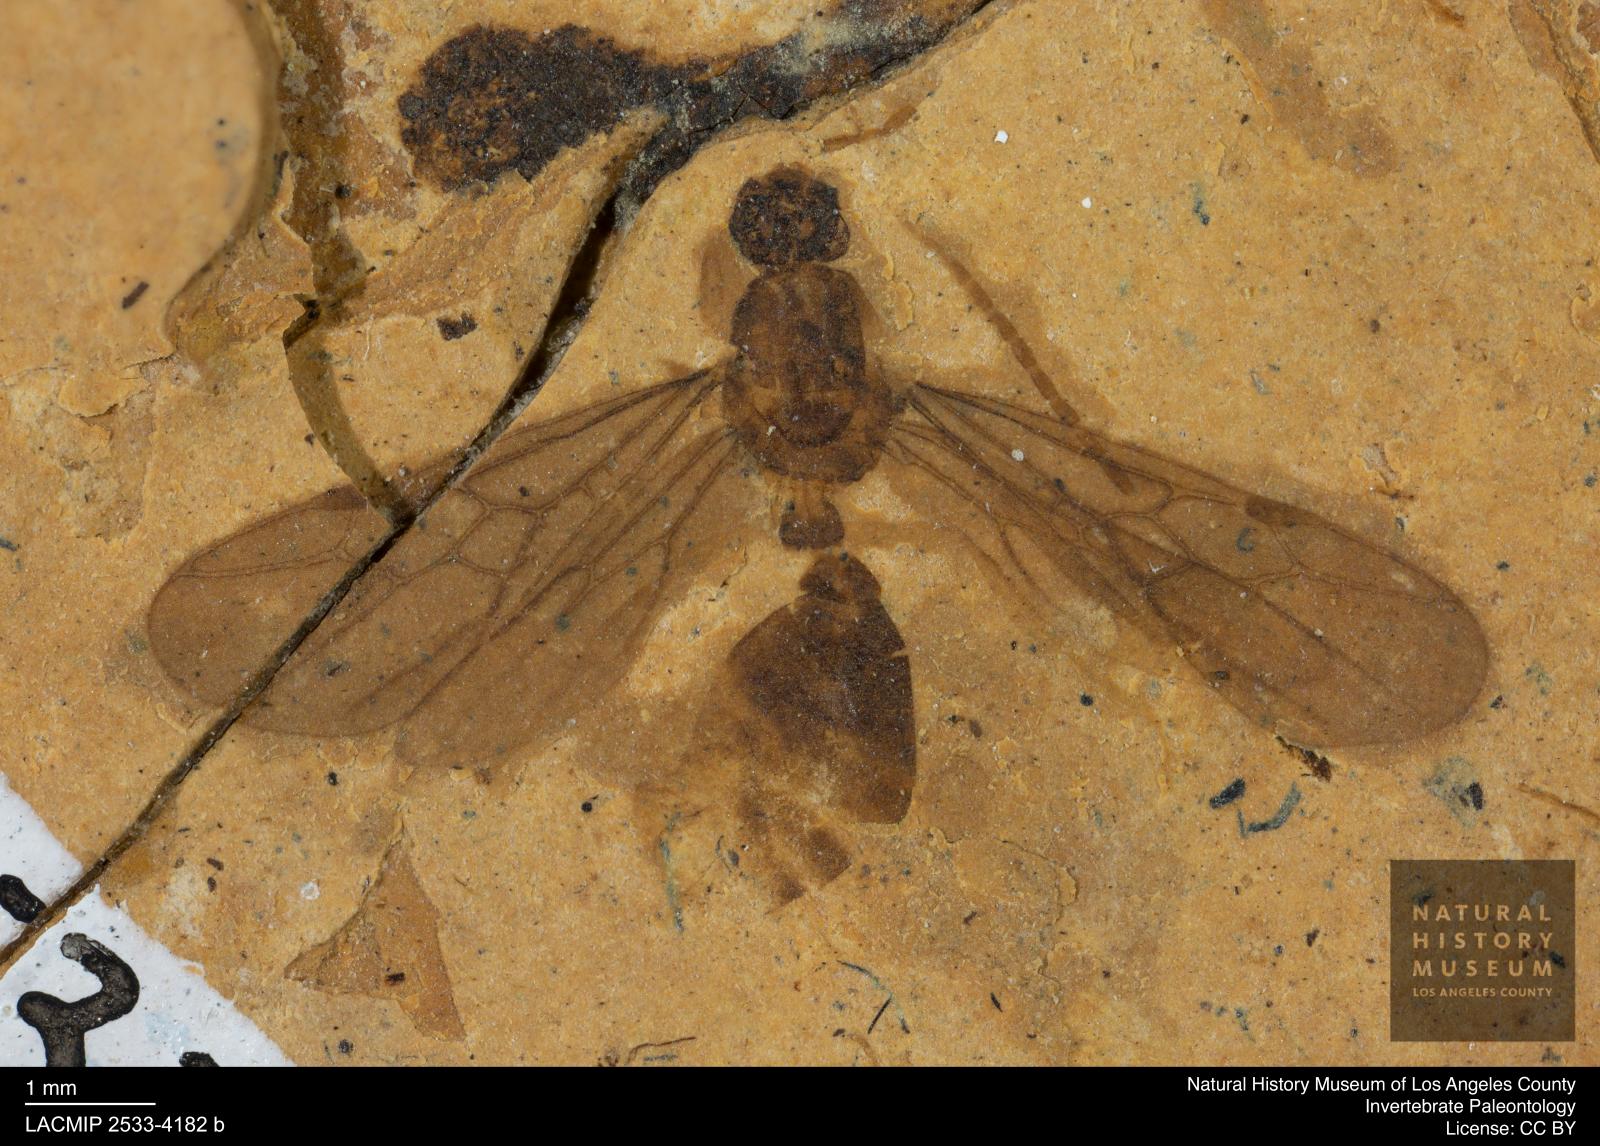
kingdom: Animalia
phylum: Arthropoda
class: Insecta
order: Hymenoptera
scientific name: Hymenoptera
